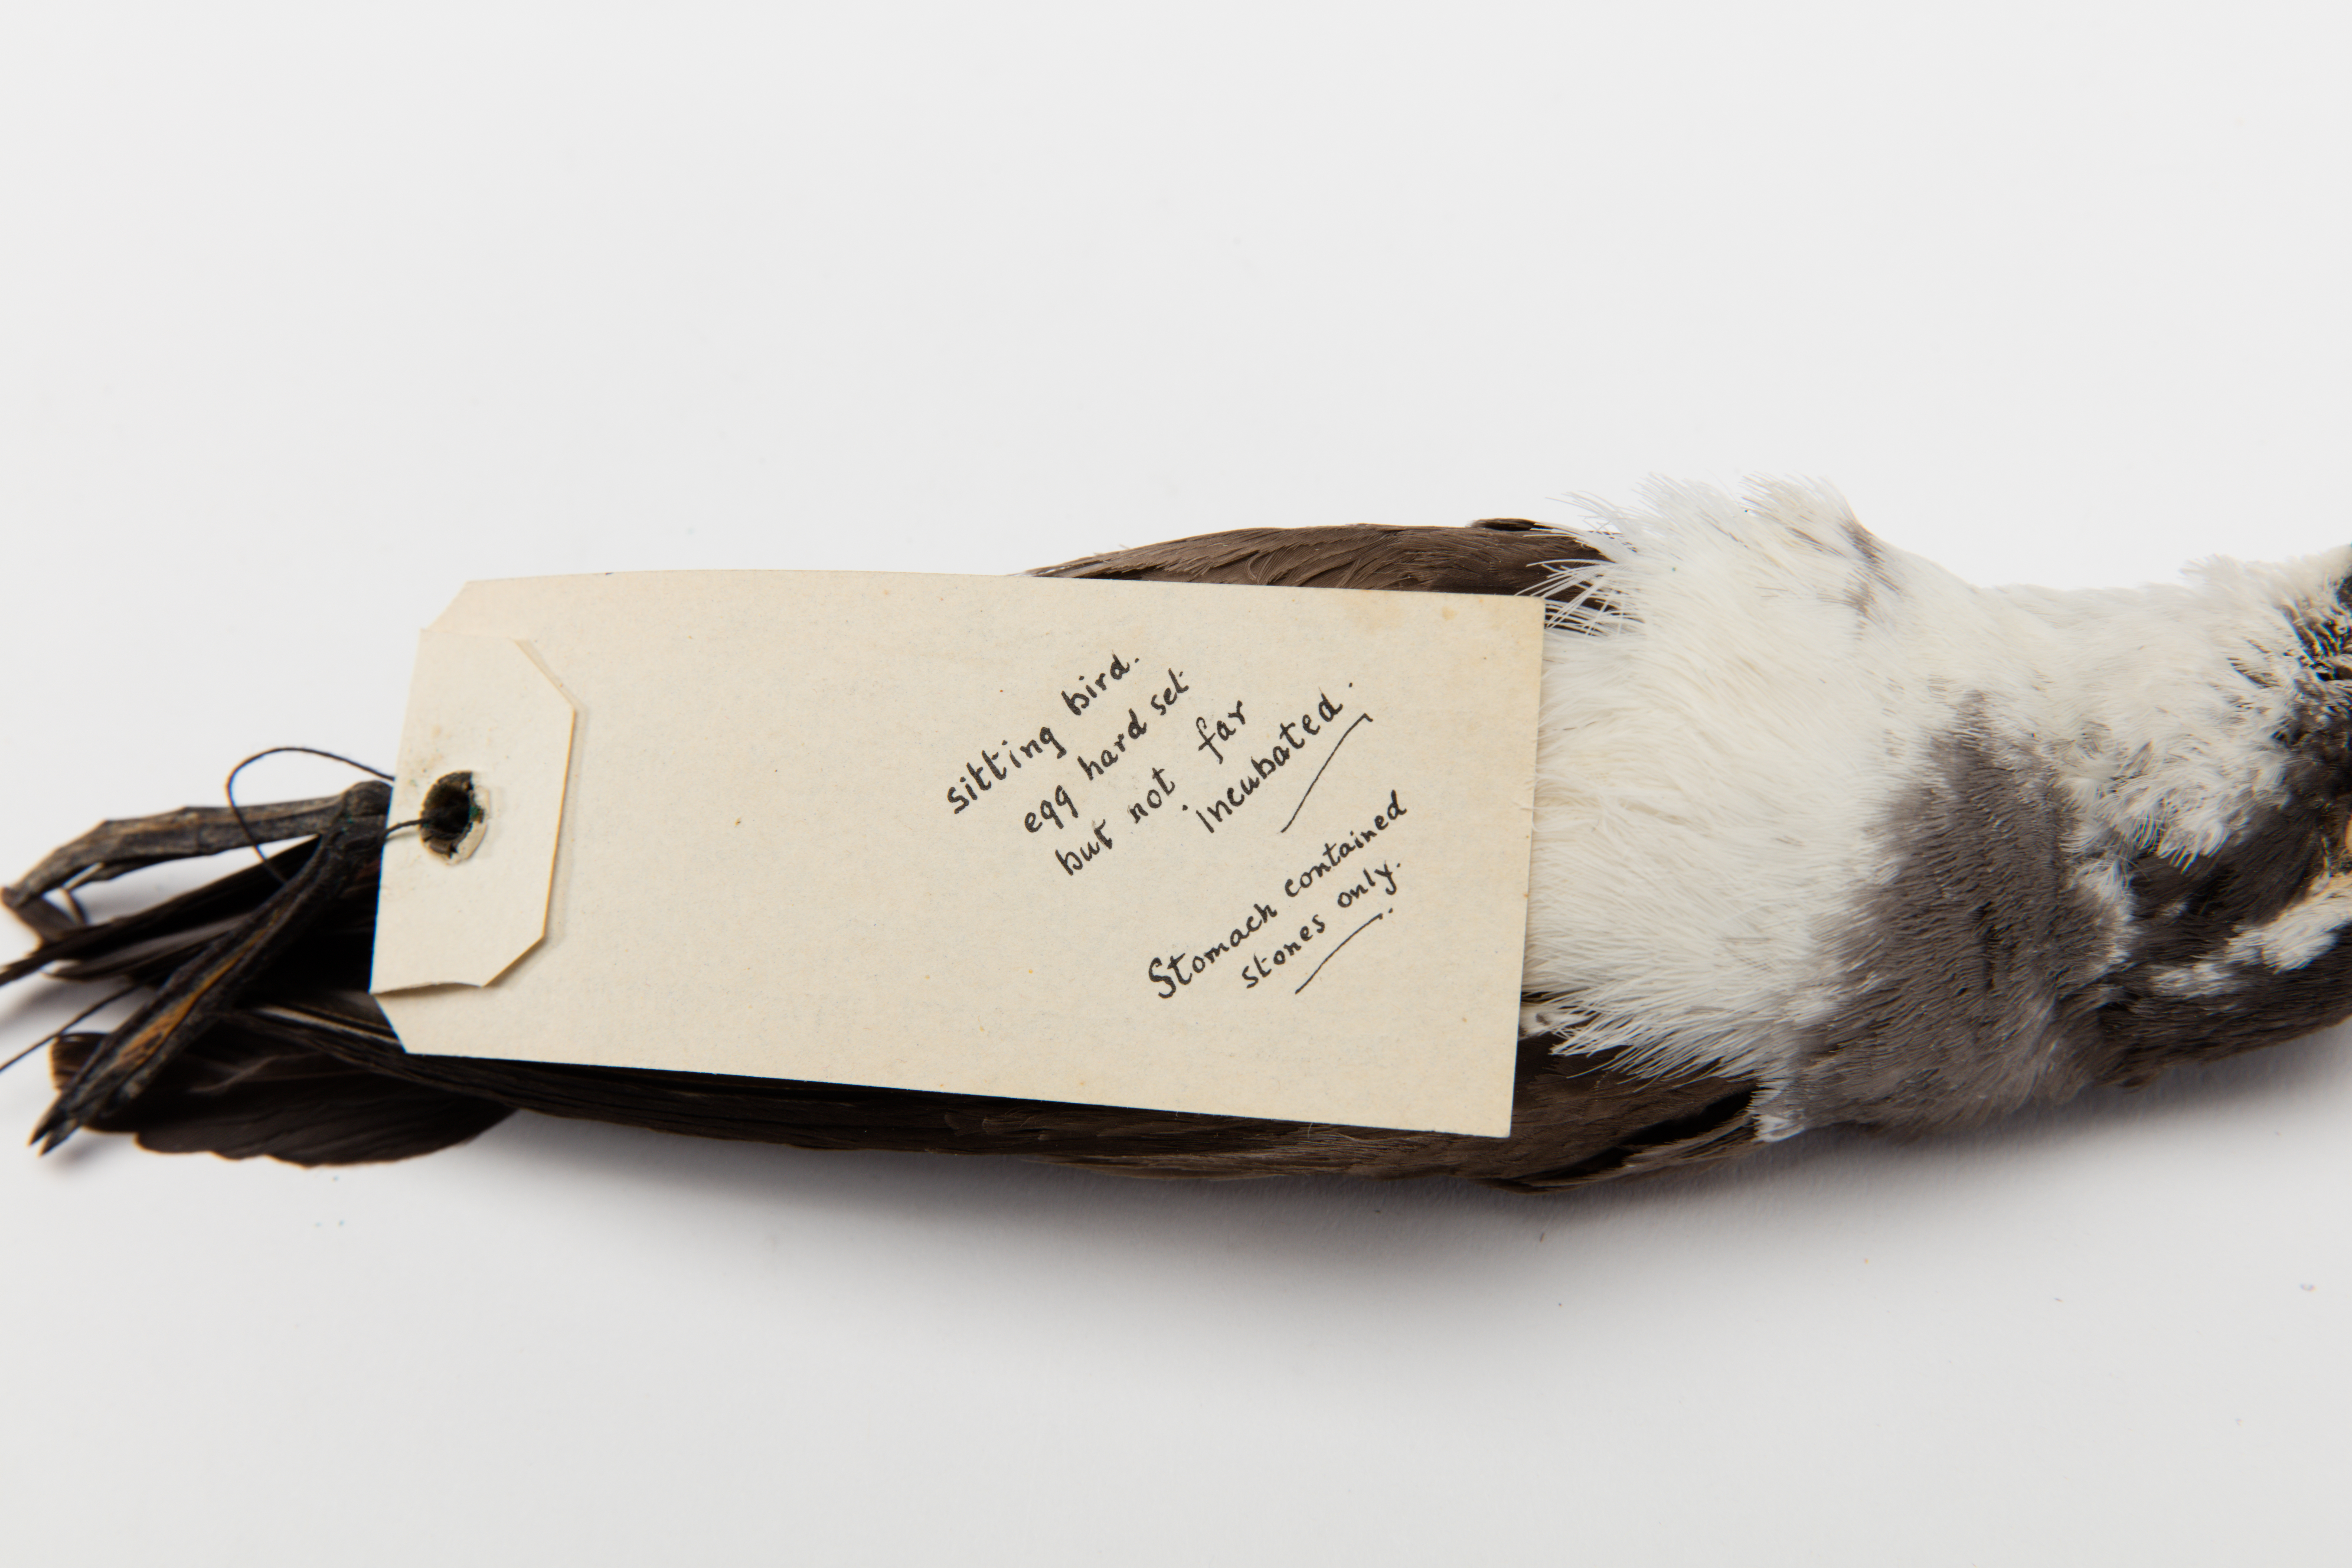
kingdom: Animalia
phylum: Chordata
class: Aves
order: Procellariiformes
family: Hydrobatidae
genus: Pelagodroma
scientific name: Pelagodroma marina
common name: White-faced storm-petrel
